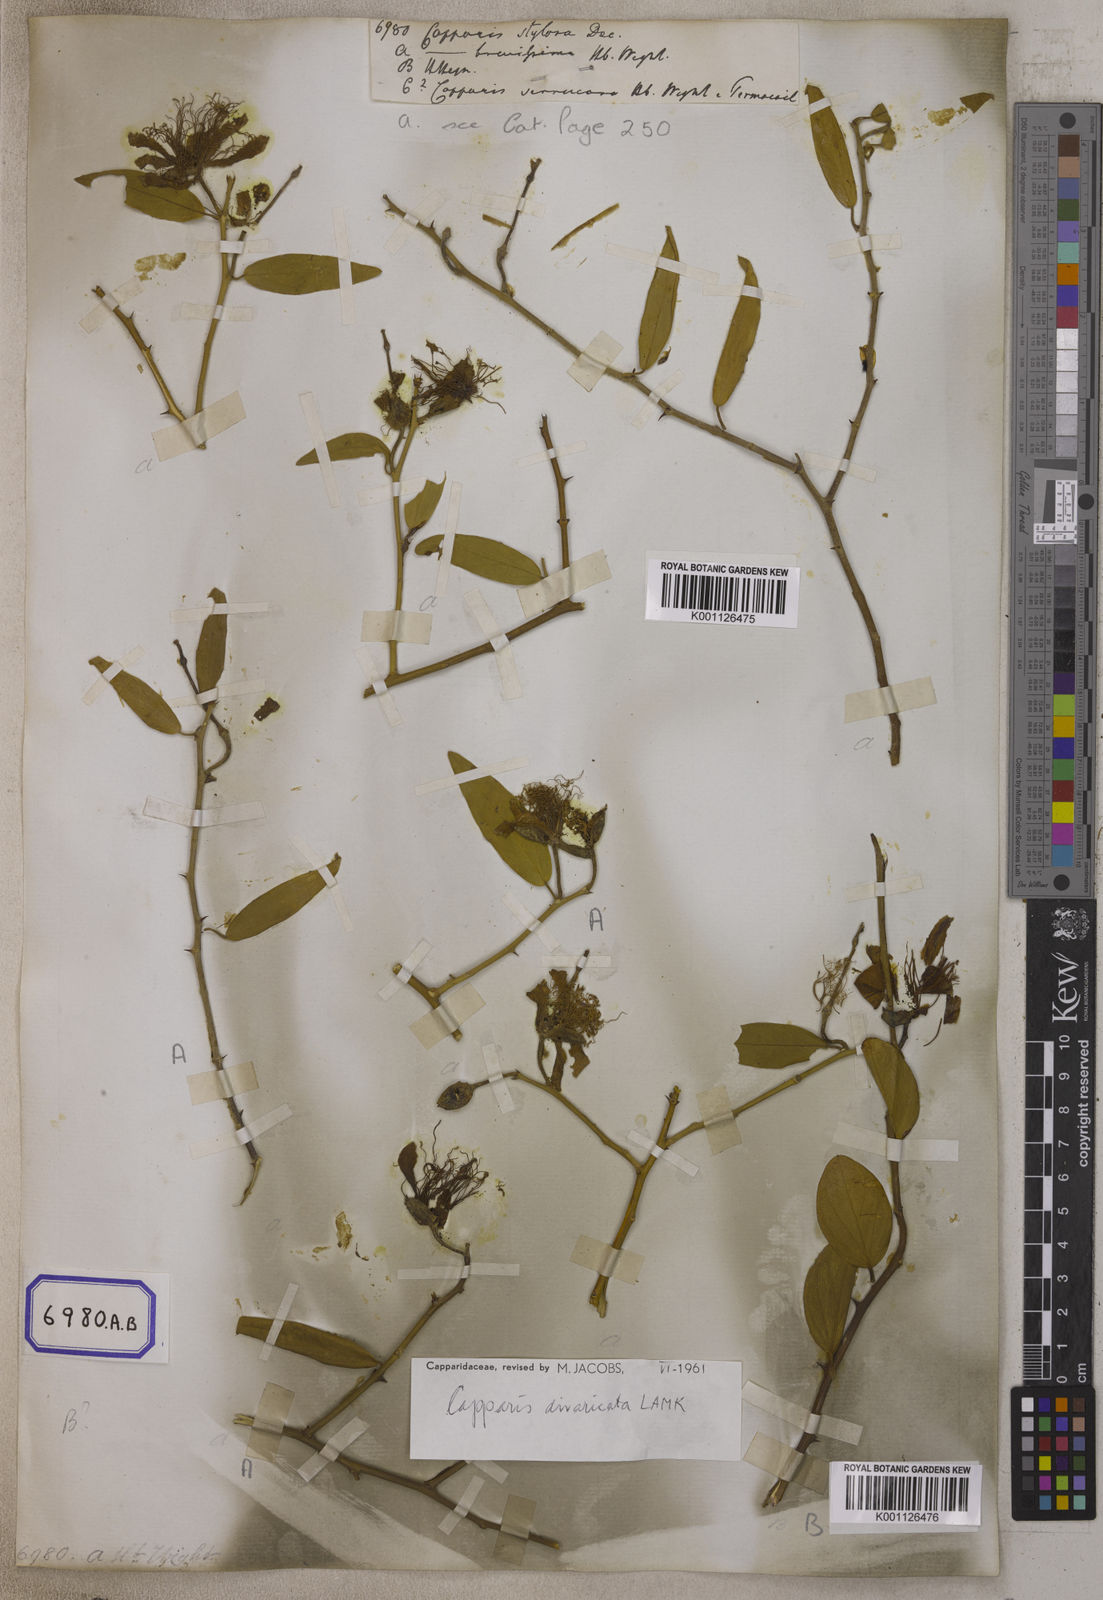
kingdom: Plantae
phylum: Tracheophyta
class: Magnoliopsida
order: Brassicales
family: Capparaceae
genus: Capparis
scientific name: Capparis divaricata
